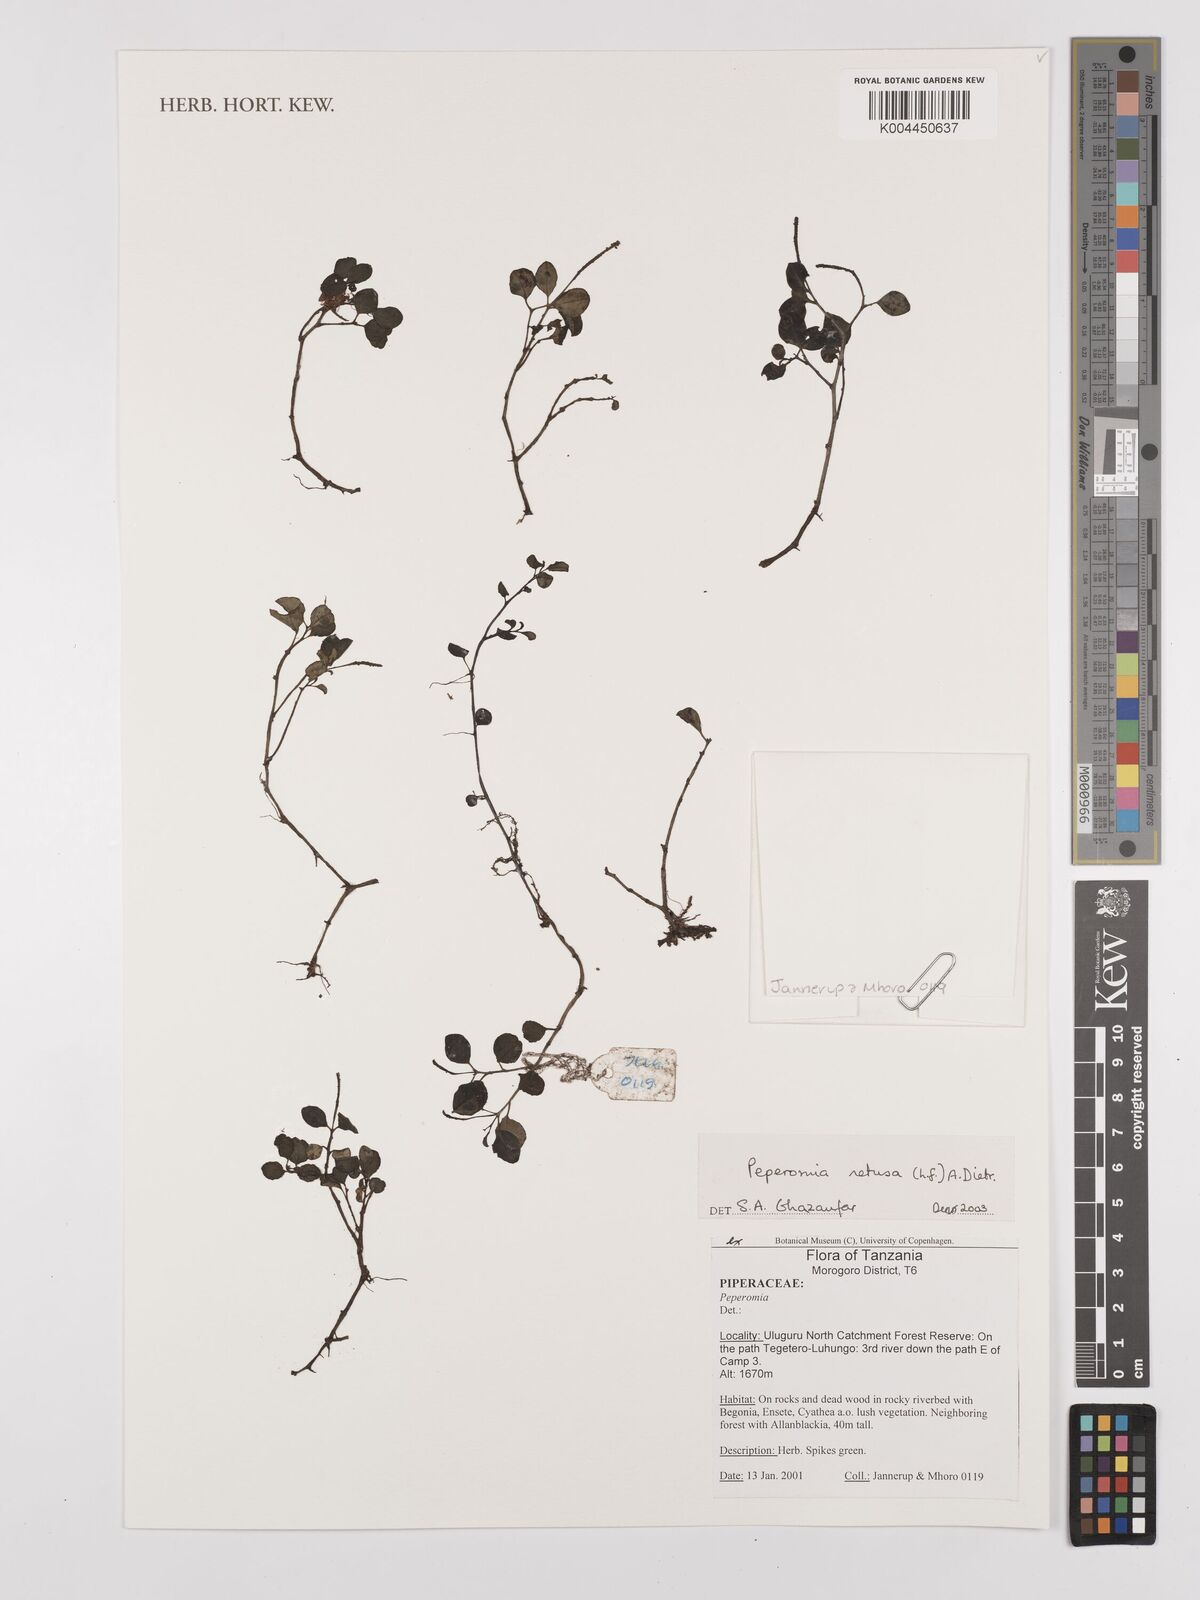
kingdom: Plantae
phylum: Tracheophyta
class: Magnoliopsida
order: Piperales
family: Piperaceae
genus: Peperomia
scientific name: Peperomia retusa
